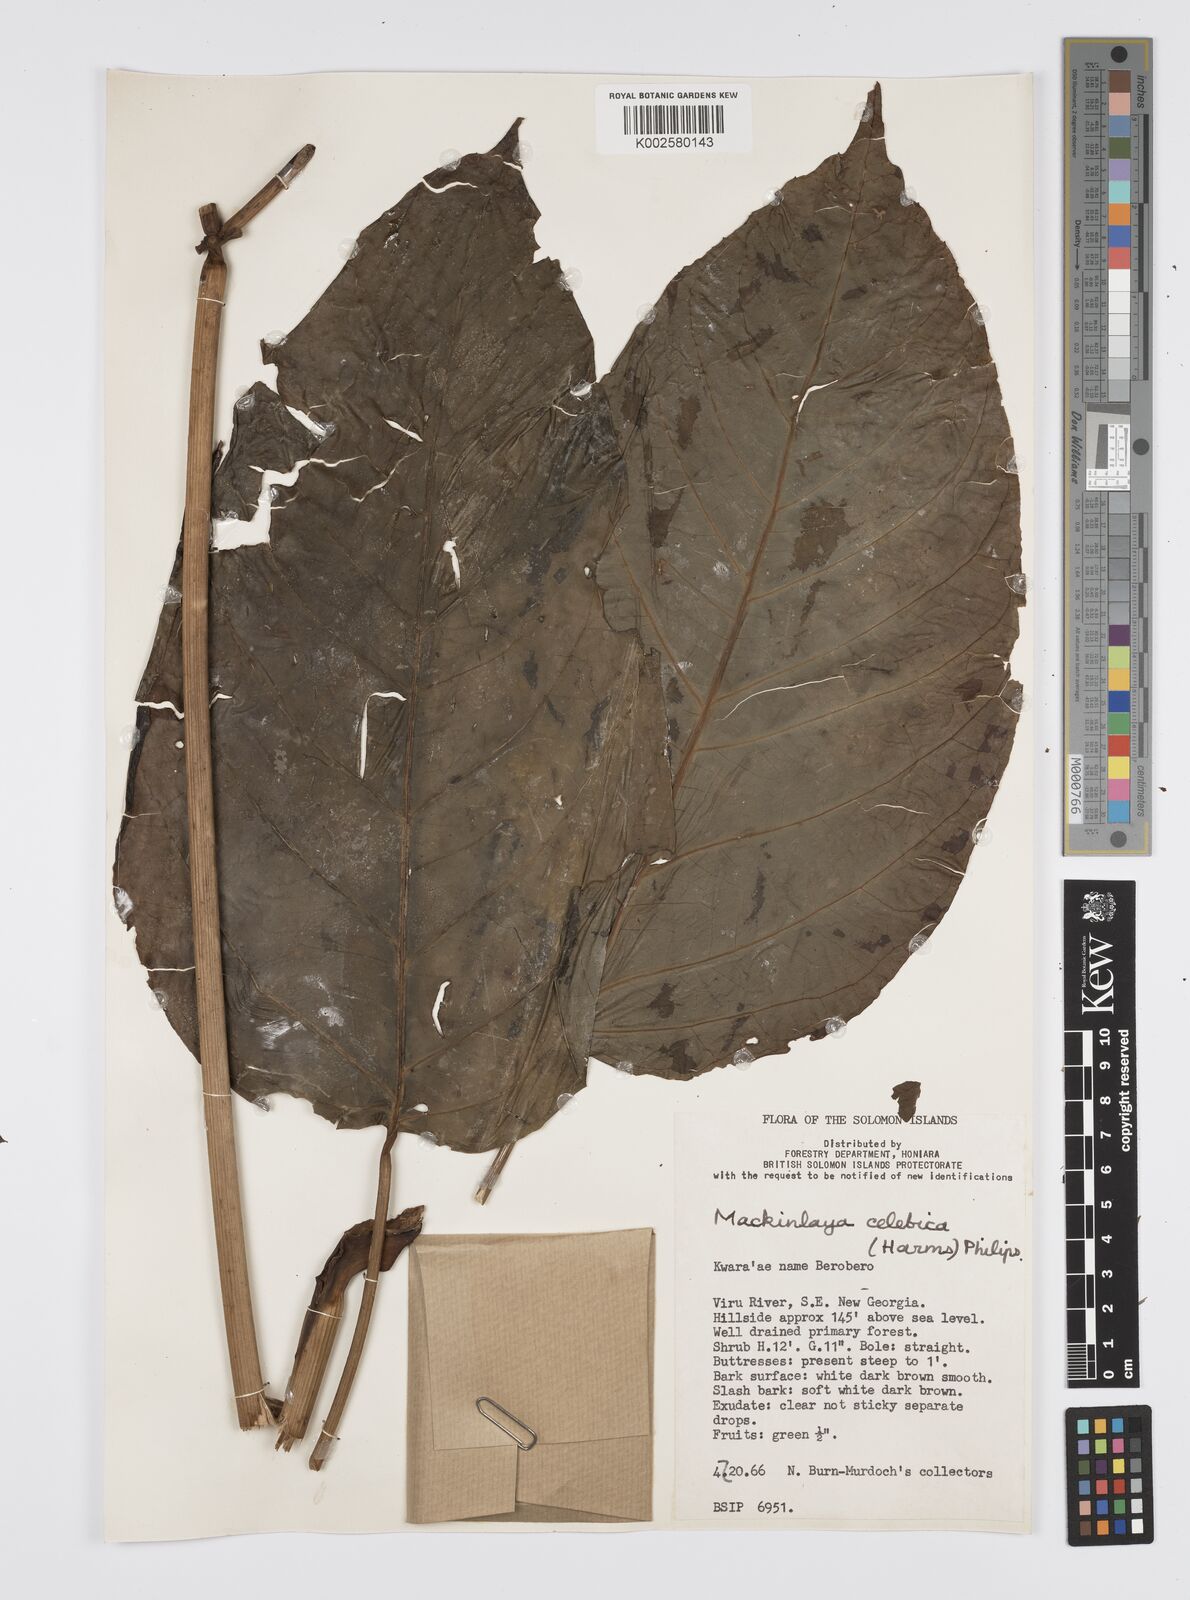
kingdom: Plantae
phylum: Tracheophyta
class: Magnoliopsida
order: Apiales
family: Apiaceae
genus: Mackinlaya
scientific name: Mackinlaya celebica
